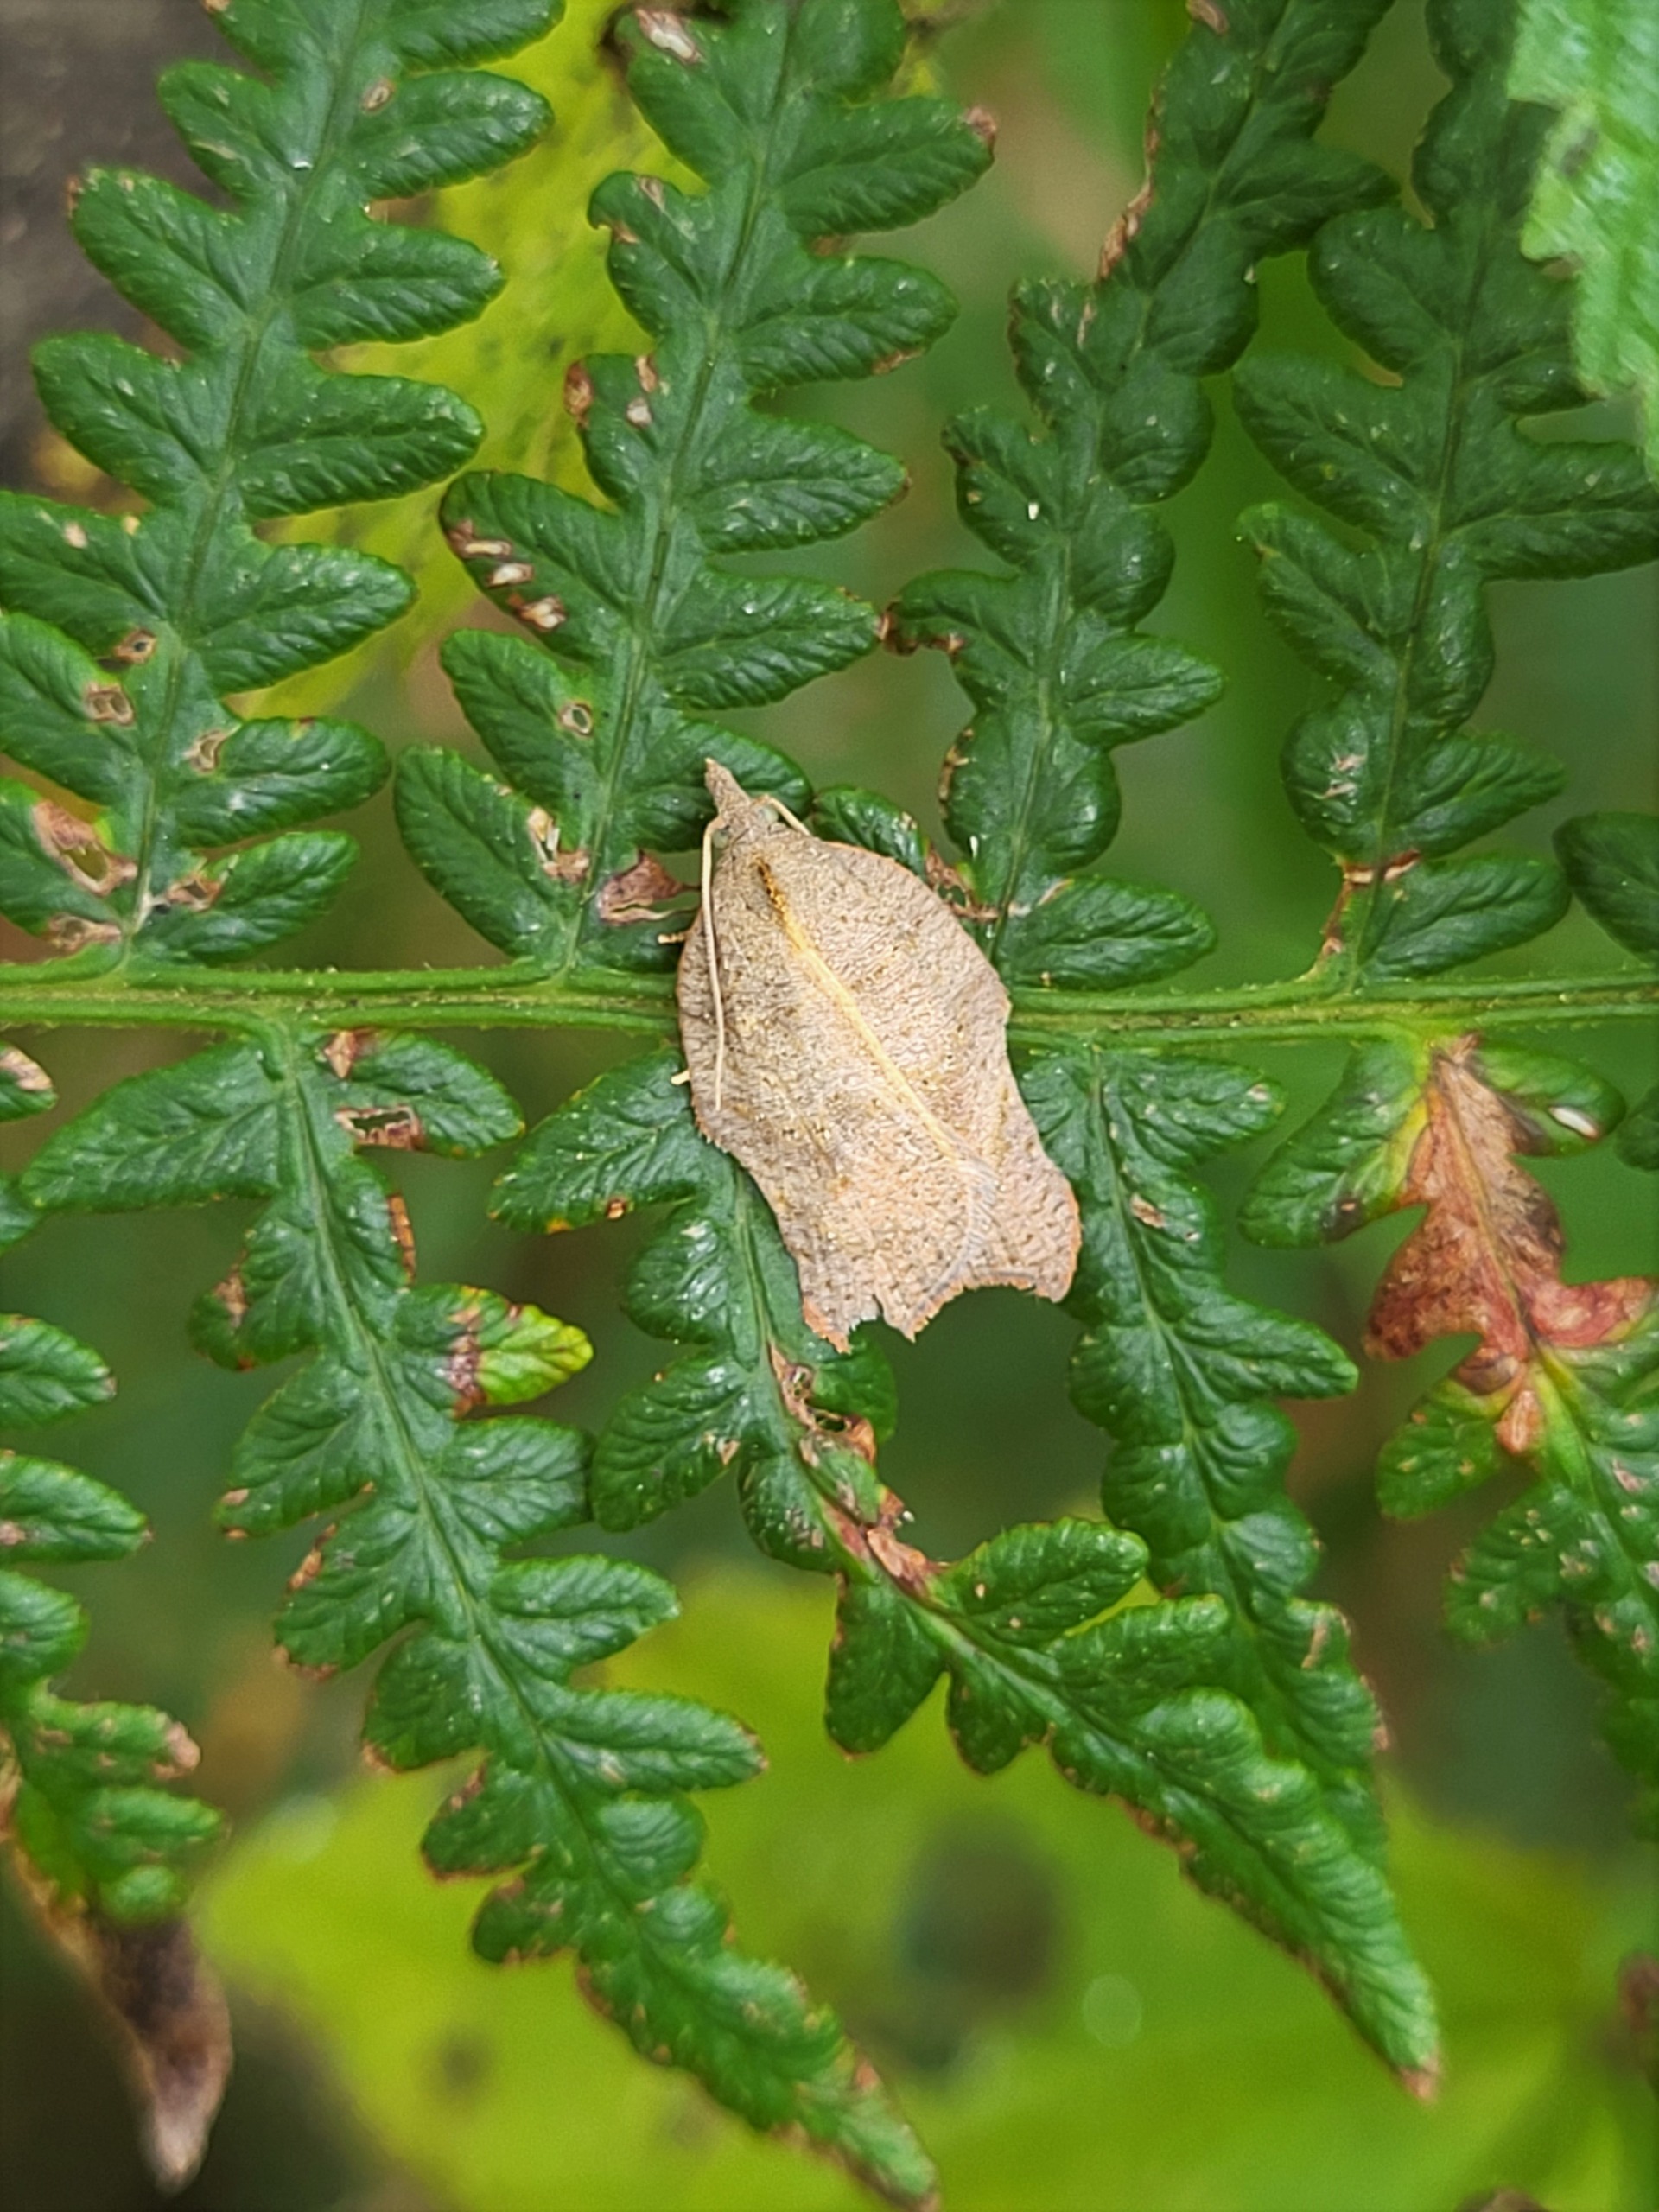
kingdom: Animalia
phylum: Arthropoda
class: Insecta
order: Lepidoptera
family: Tortricidae
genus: Acleris
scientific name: Acleris emargana
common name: Konkav pilevikler
